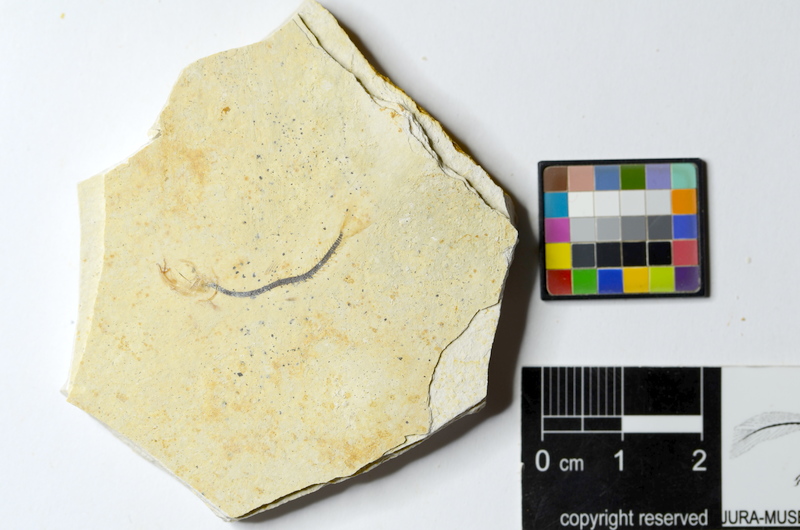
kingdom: Animalia
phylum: Chordata
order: Salmoniformes
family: Orthogonikleithridae
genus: Orthogonikleithrus
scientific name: Orthogonikleithrus hoelli
